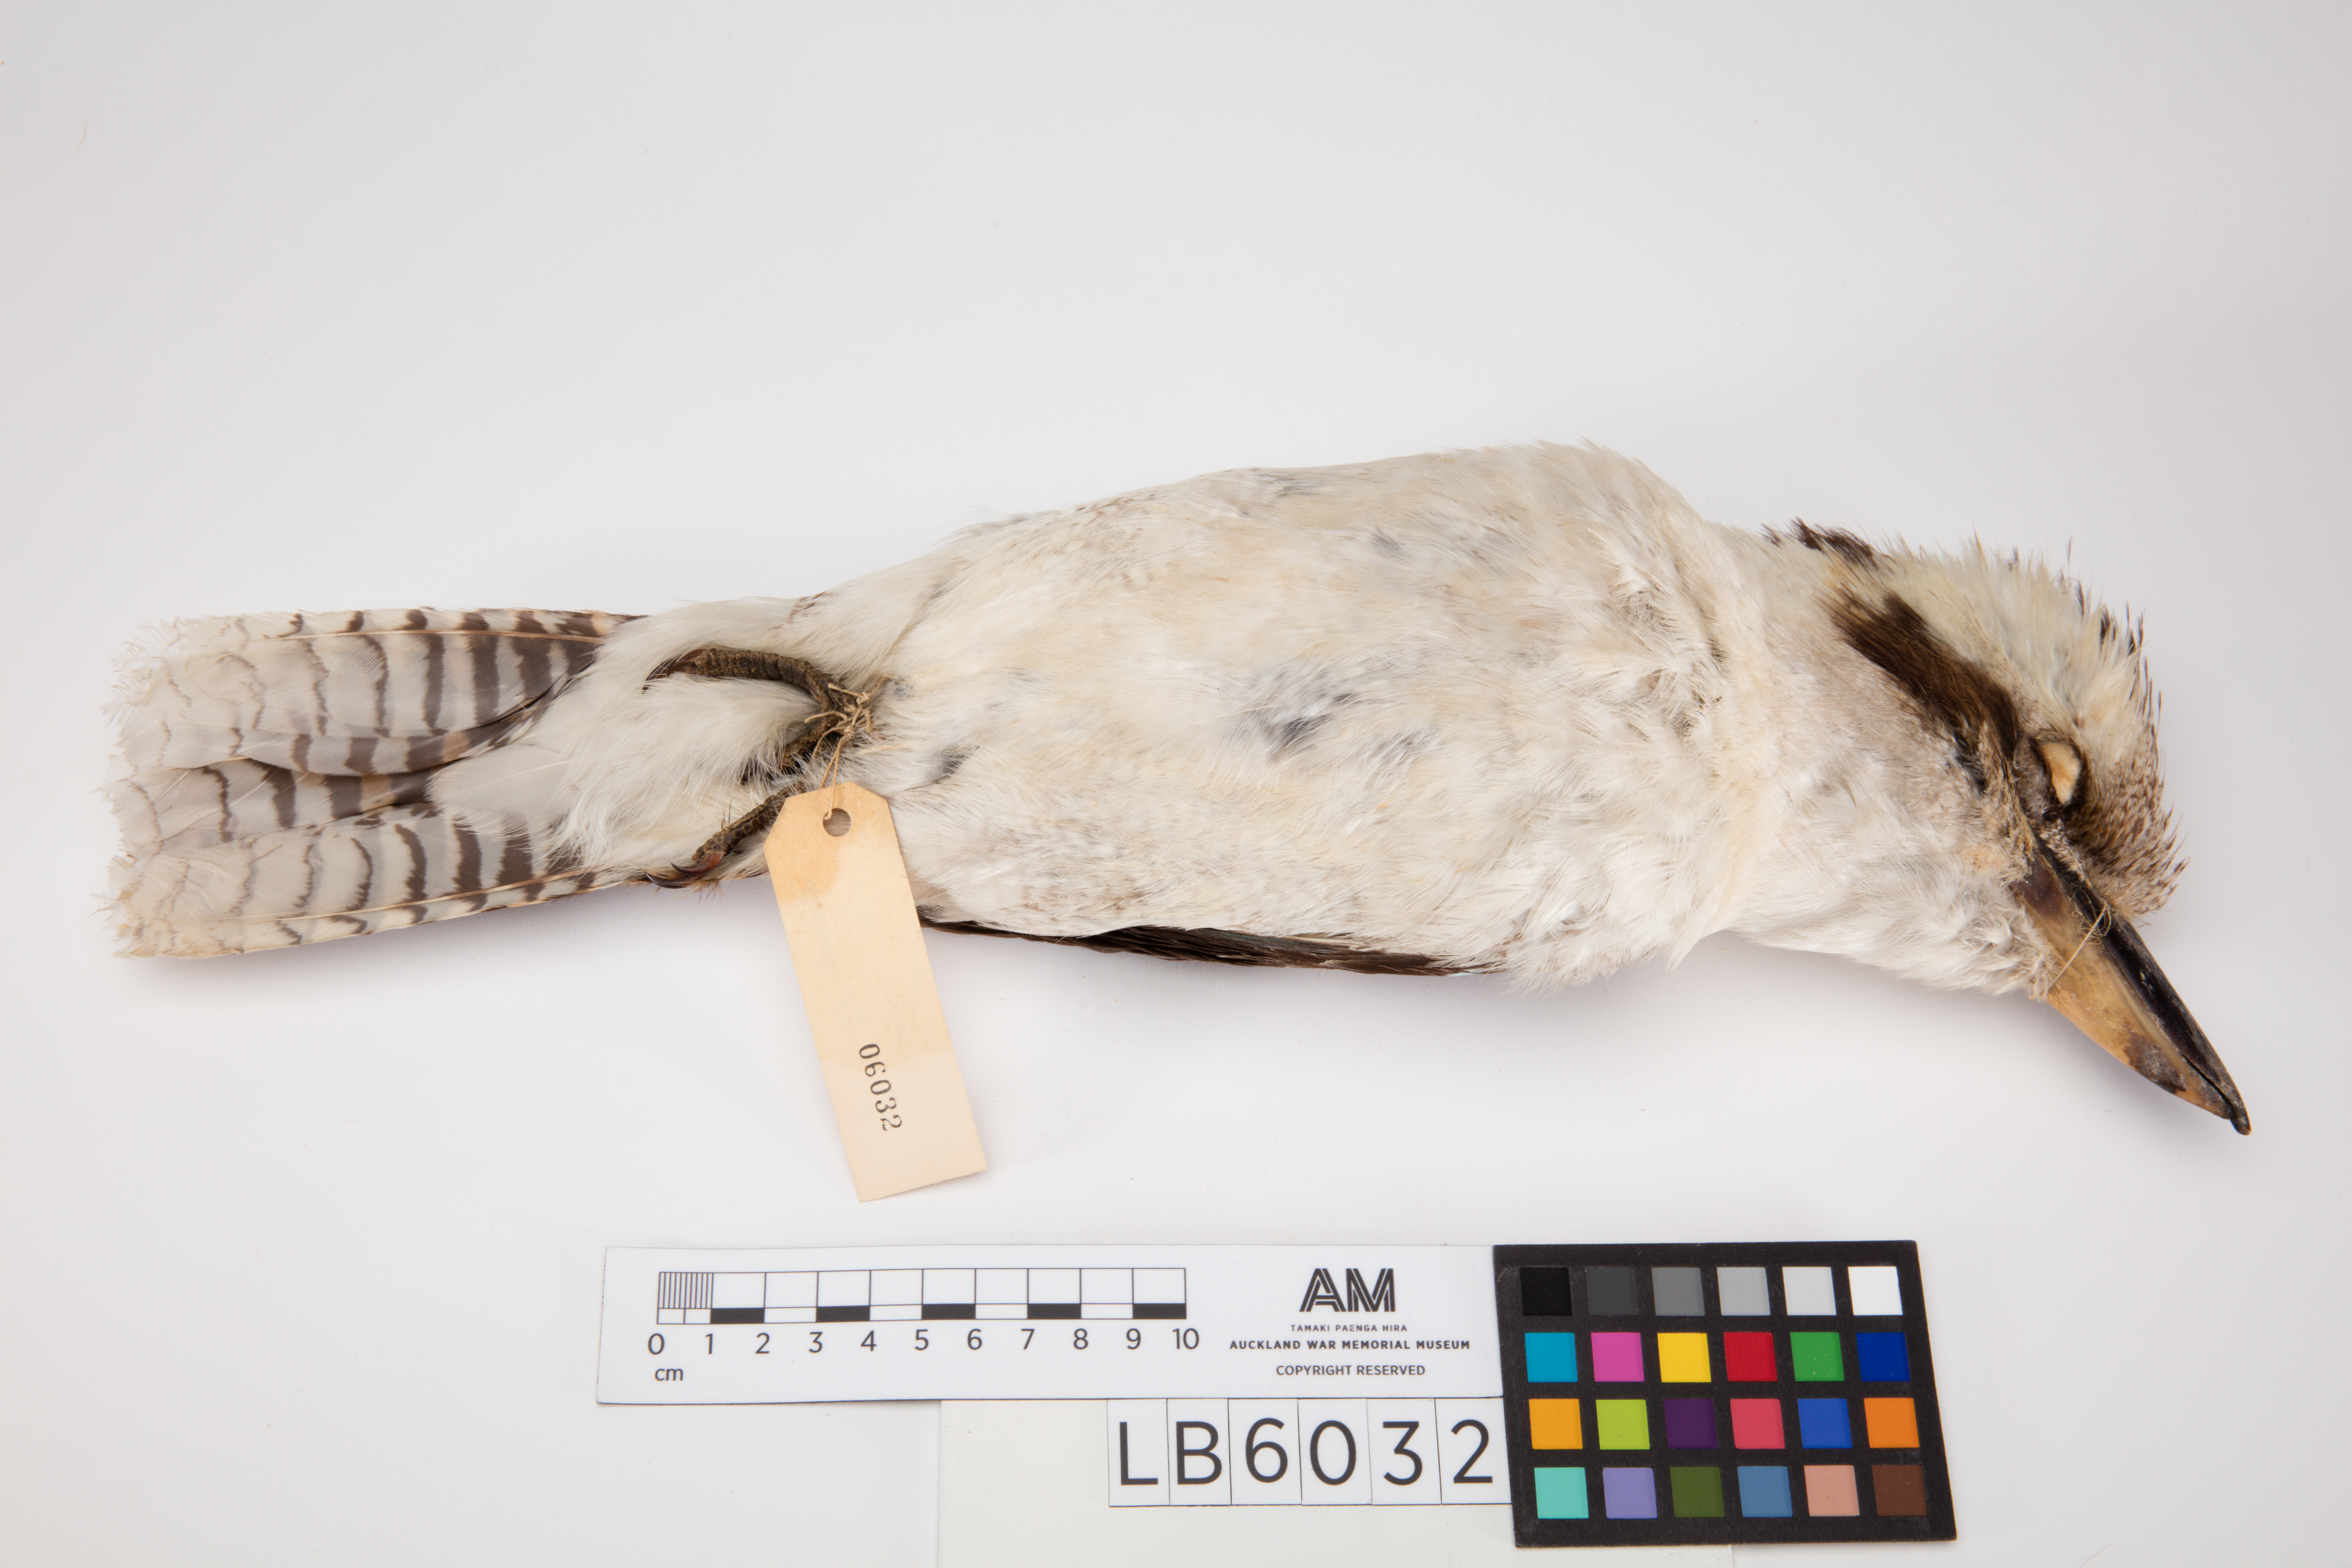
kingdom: Animalia
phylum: Chordata
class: Aves
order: Coraciiformes
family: Alcedinidae
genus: Dacelo
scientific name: Dacelo novaeguineae
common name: Laughing kookaburra
